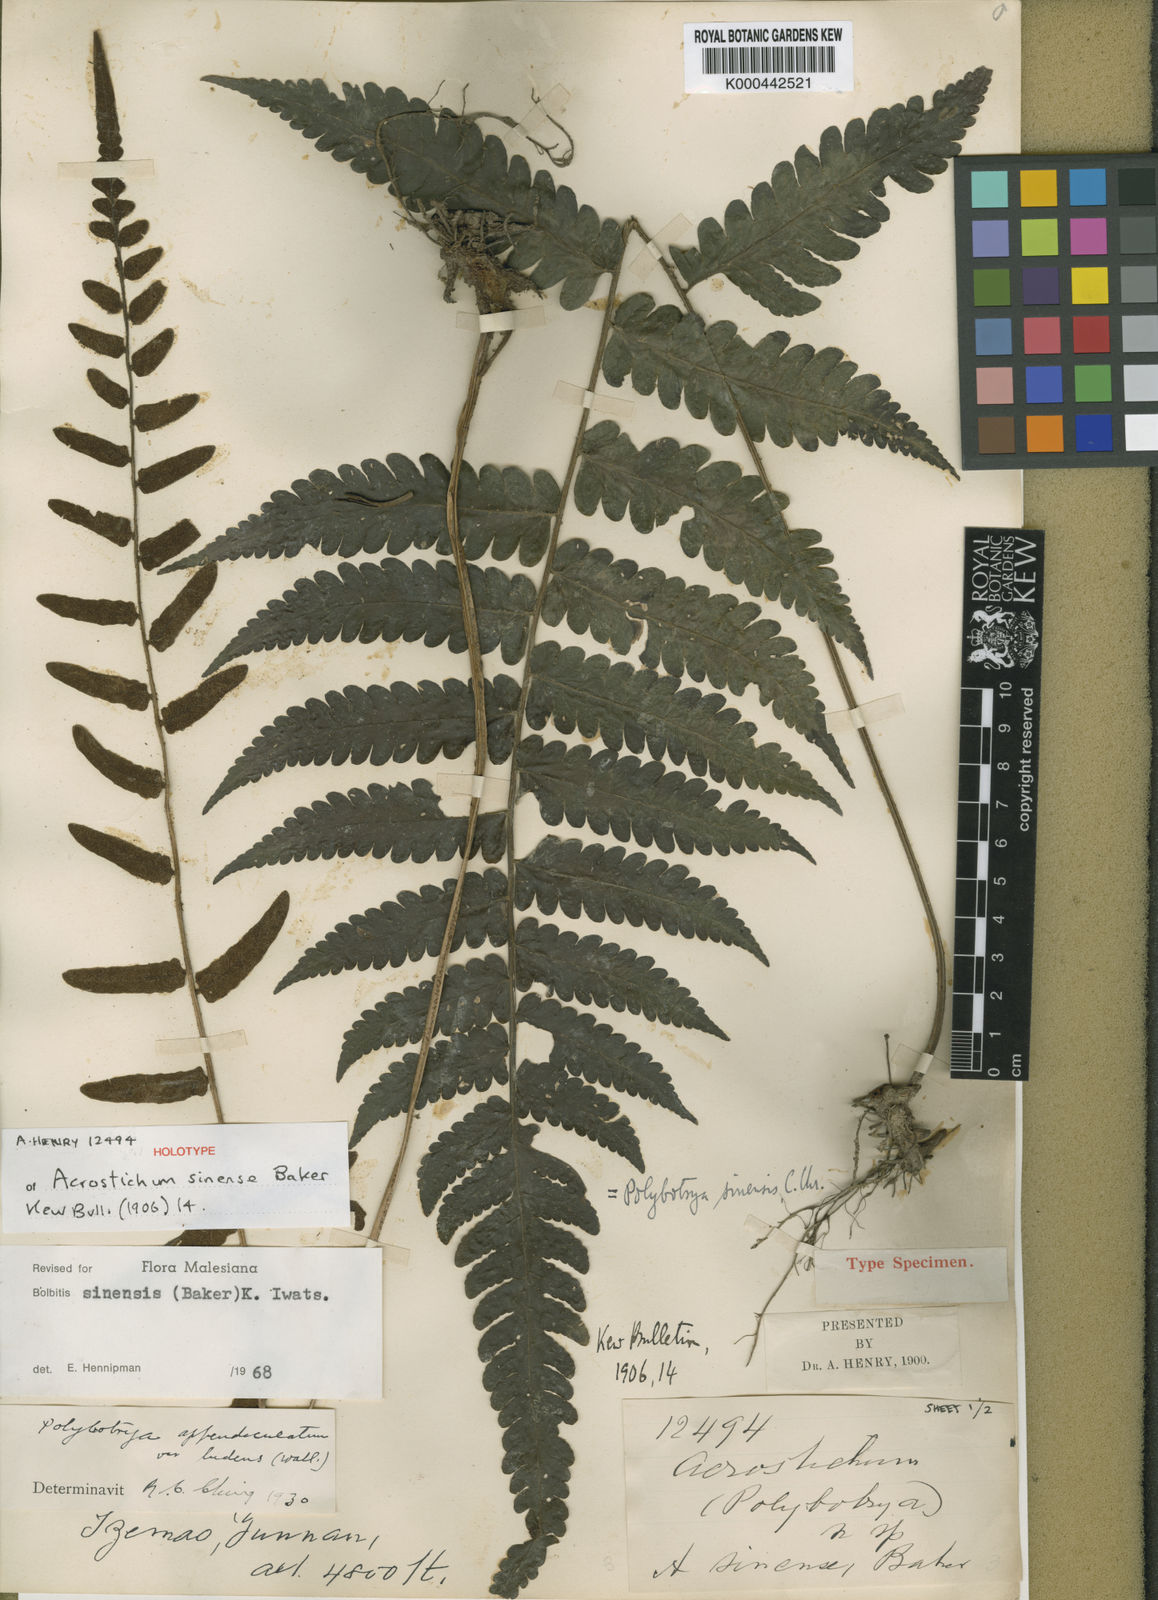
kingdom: Plantae
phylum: Tracheophyta
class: Polypodiopsida
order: Polypodiales
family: Dryopteridaceae
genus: Bolbitis
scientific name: Bolbitis sinensis
